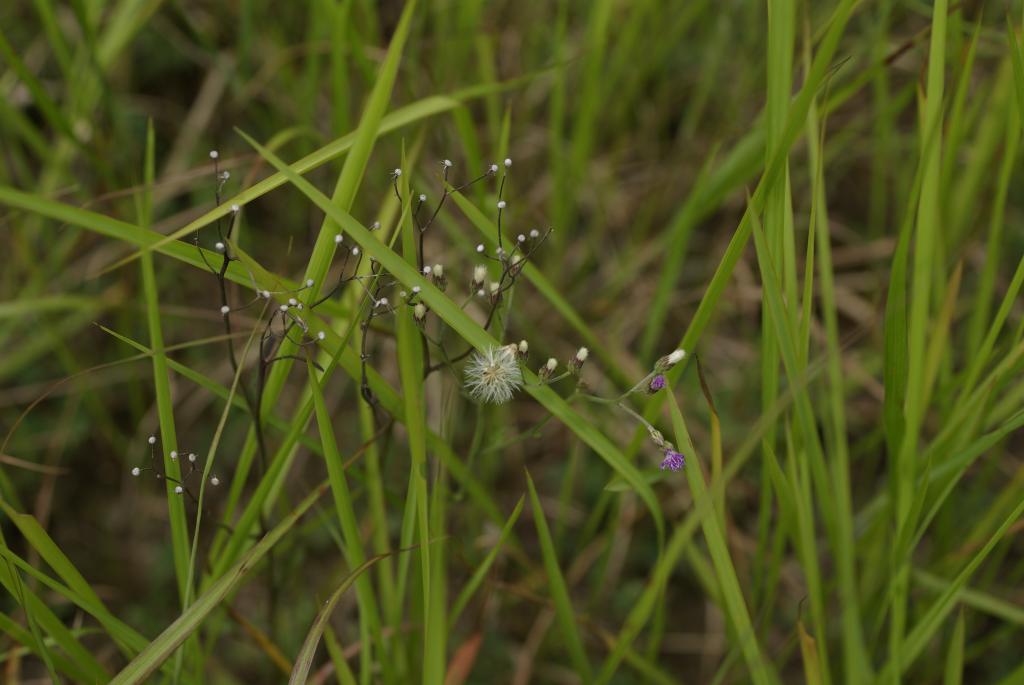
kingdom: Plantae
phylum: Tracheophyta
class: Magnoliopsida
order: Asterales
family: Asteraceae
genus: Cyanthillium
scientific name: Cyanthillium cinereum
